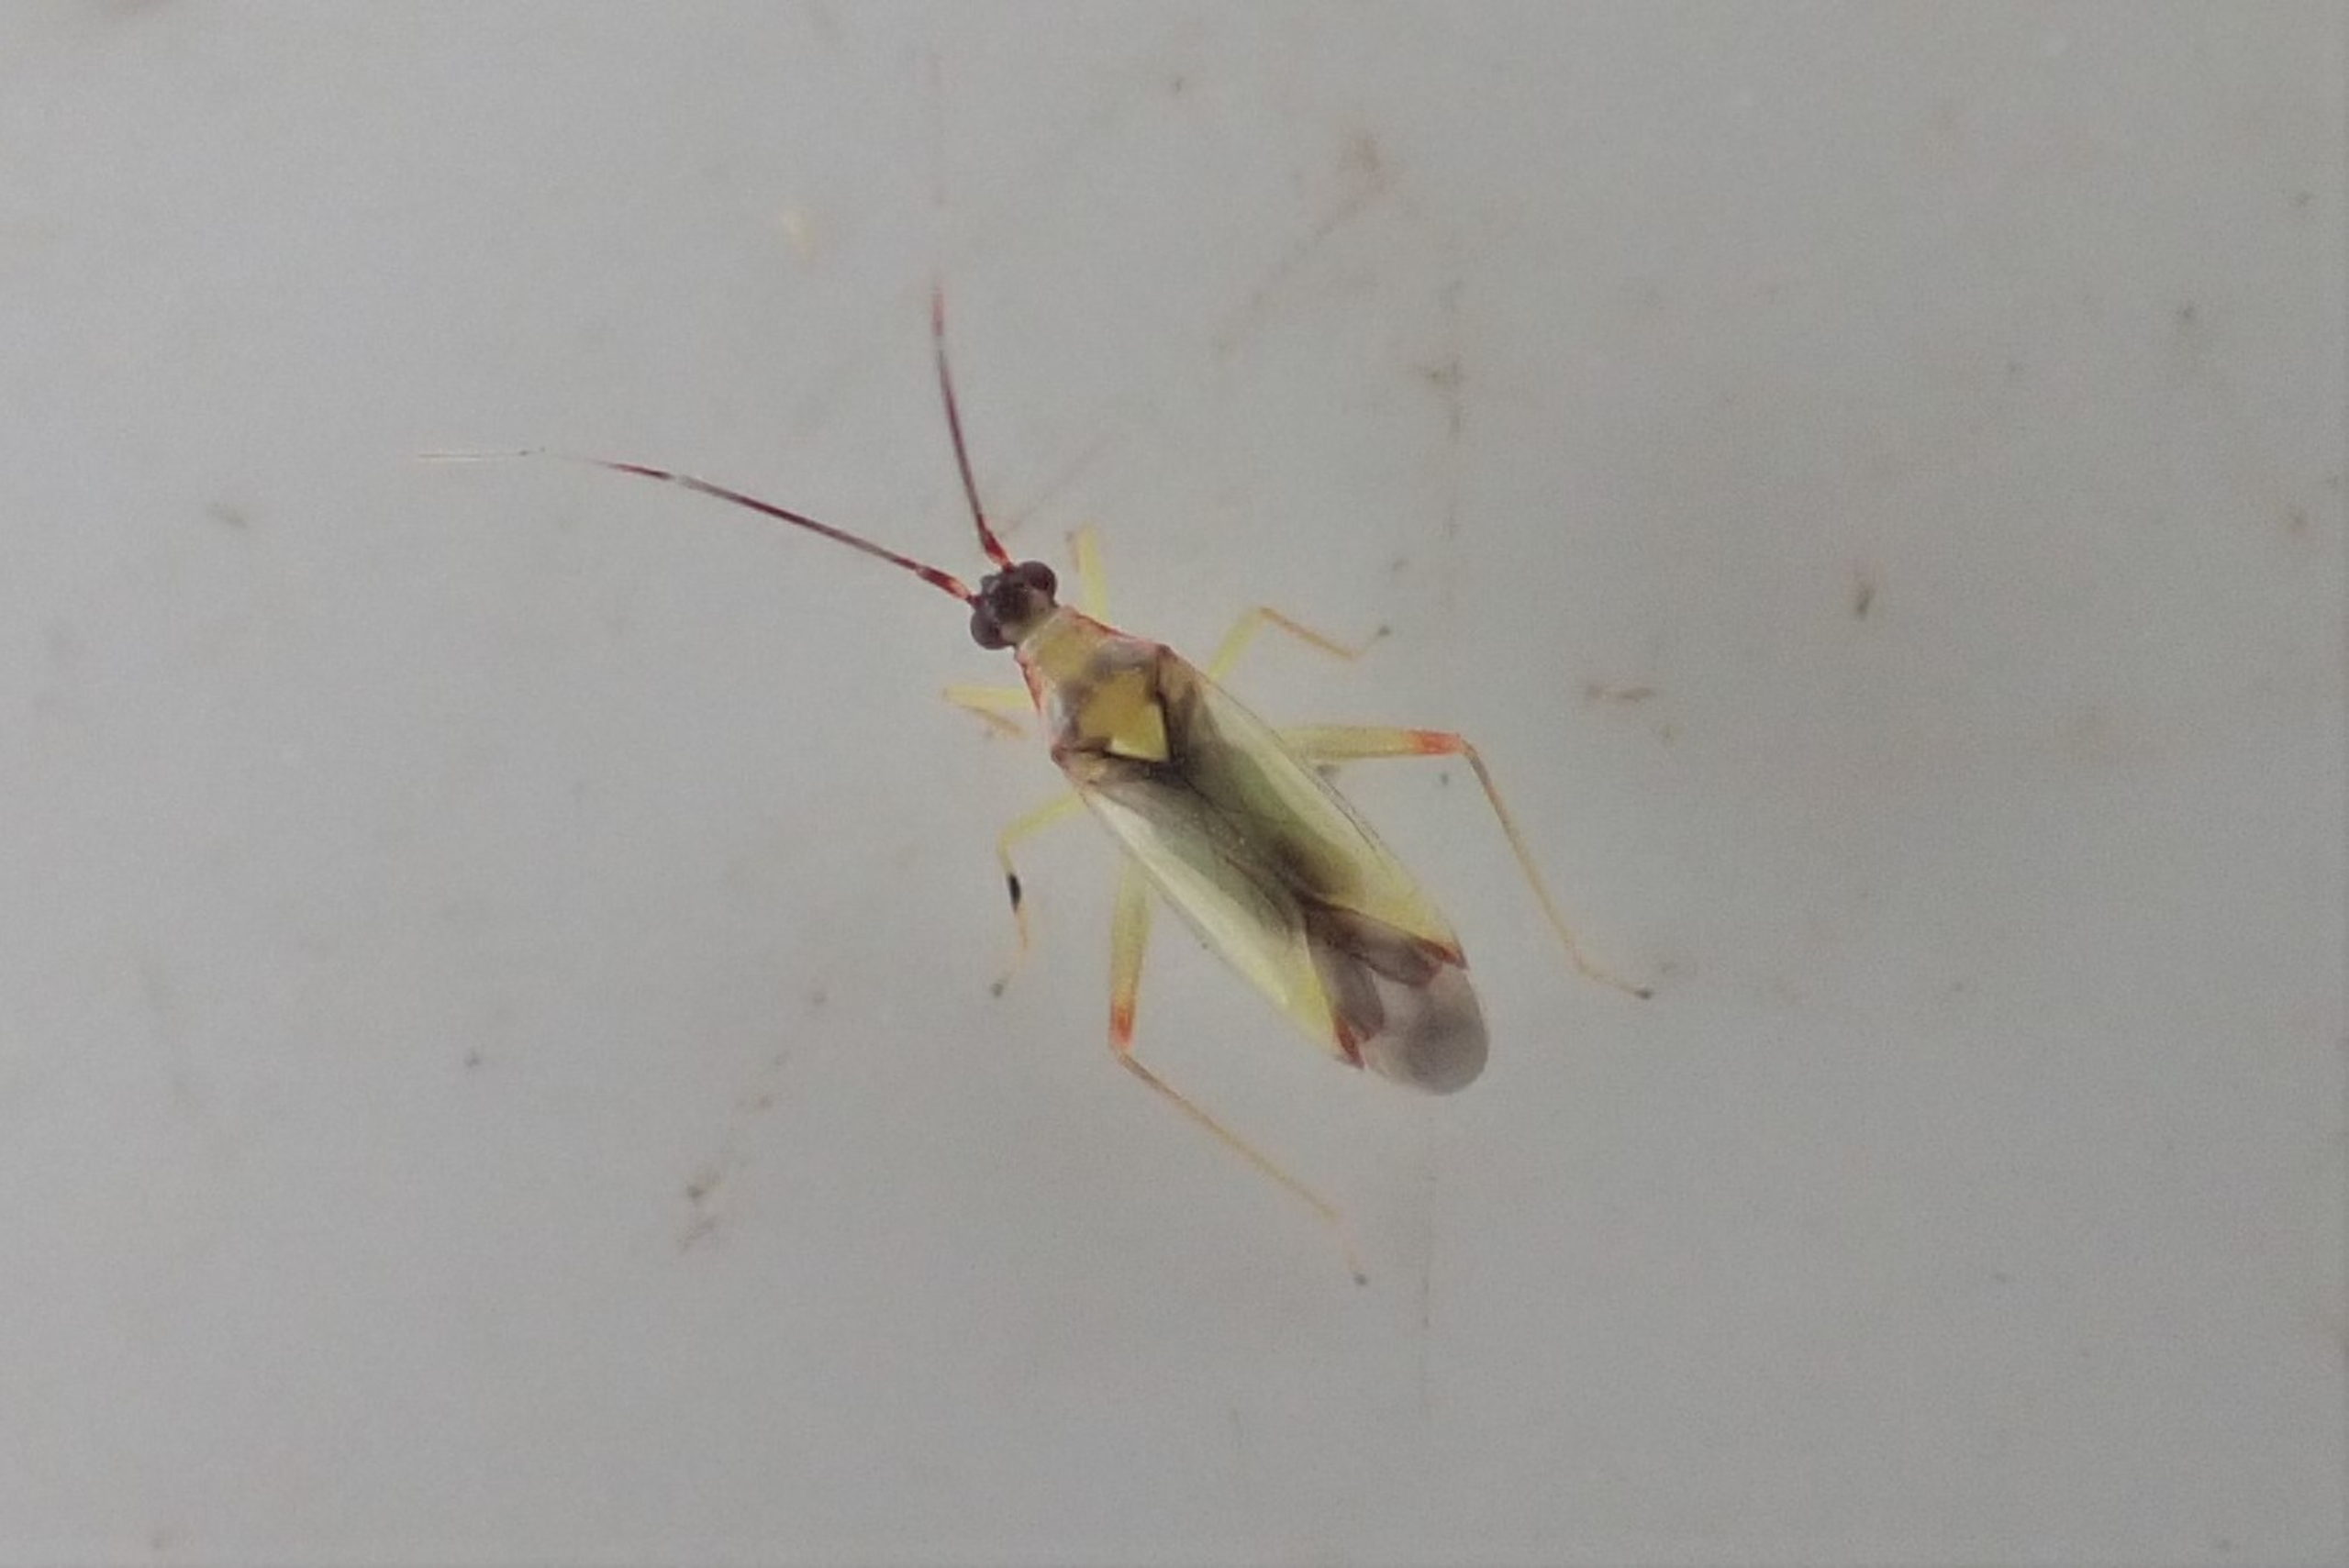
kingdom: Animalia
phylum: Arthropoda
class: Insecta
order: Hemiptera
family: Miridae
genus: Campyloneura
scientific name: Campyloneura virgula
